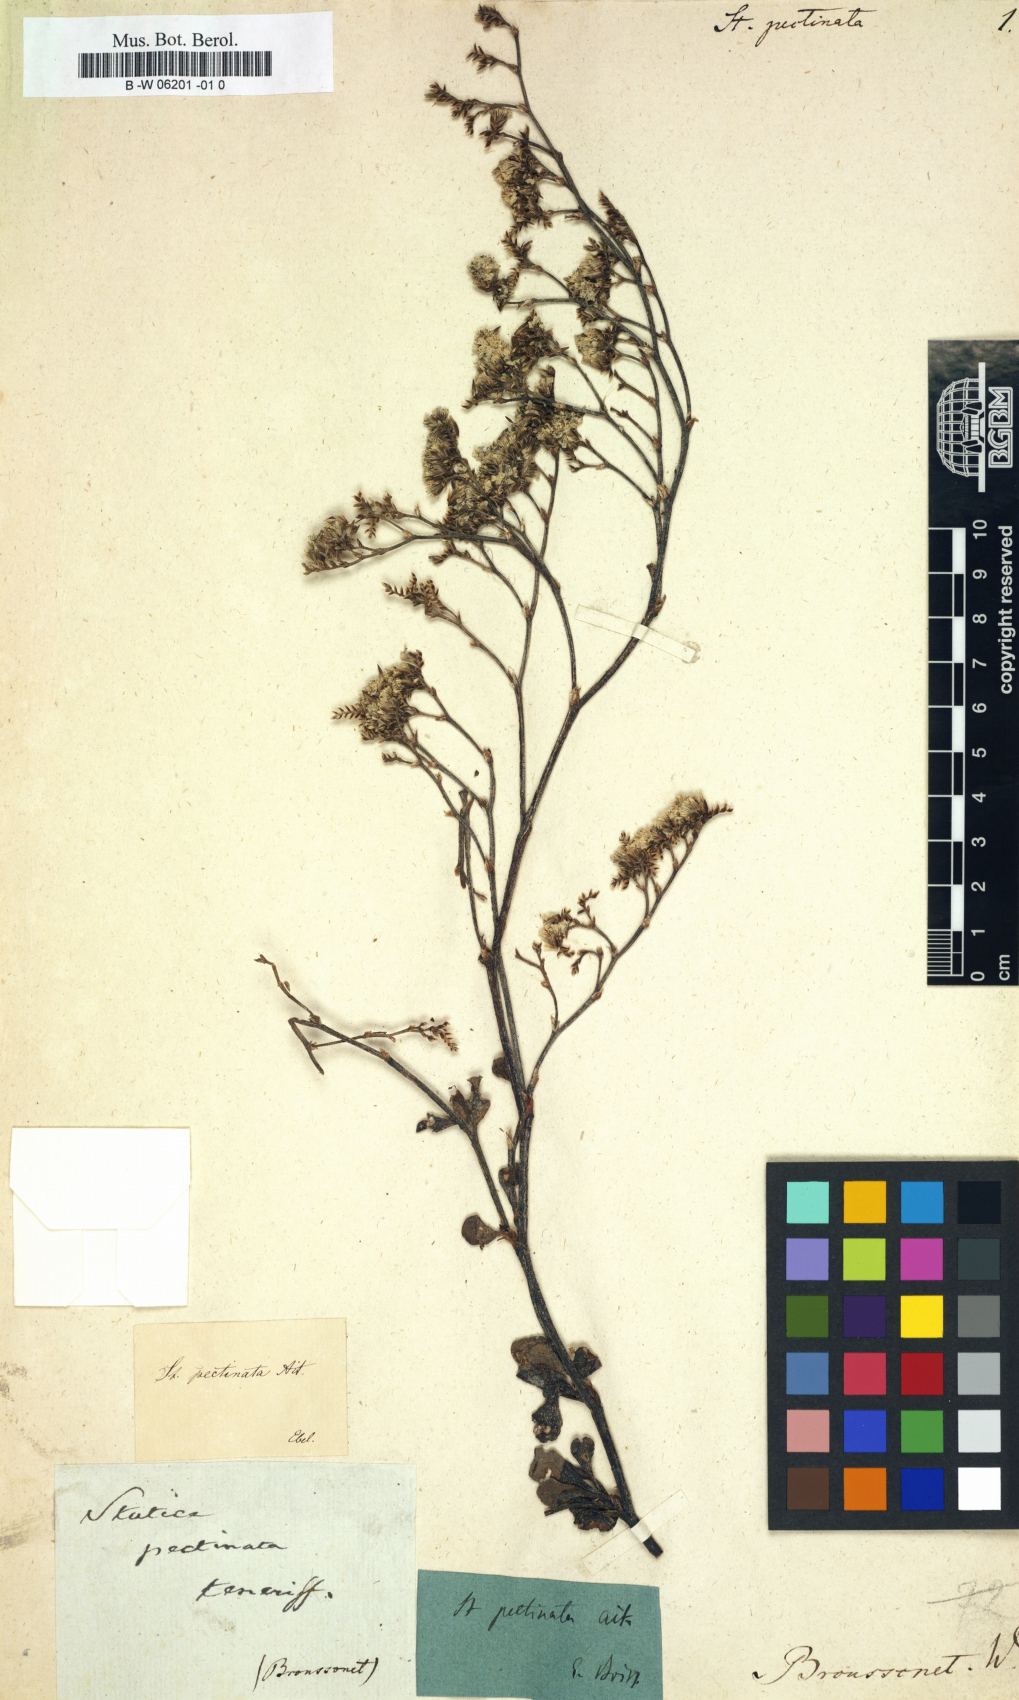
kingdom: Plantae
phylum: Tracheophyta
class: Magnoliopsida
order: Caryophyllales
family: Plumbaginaceae
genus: Limonium
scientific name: Limonium pectinatum
